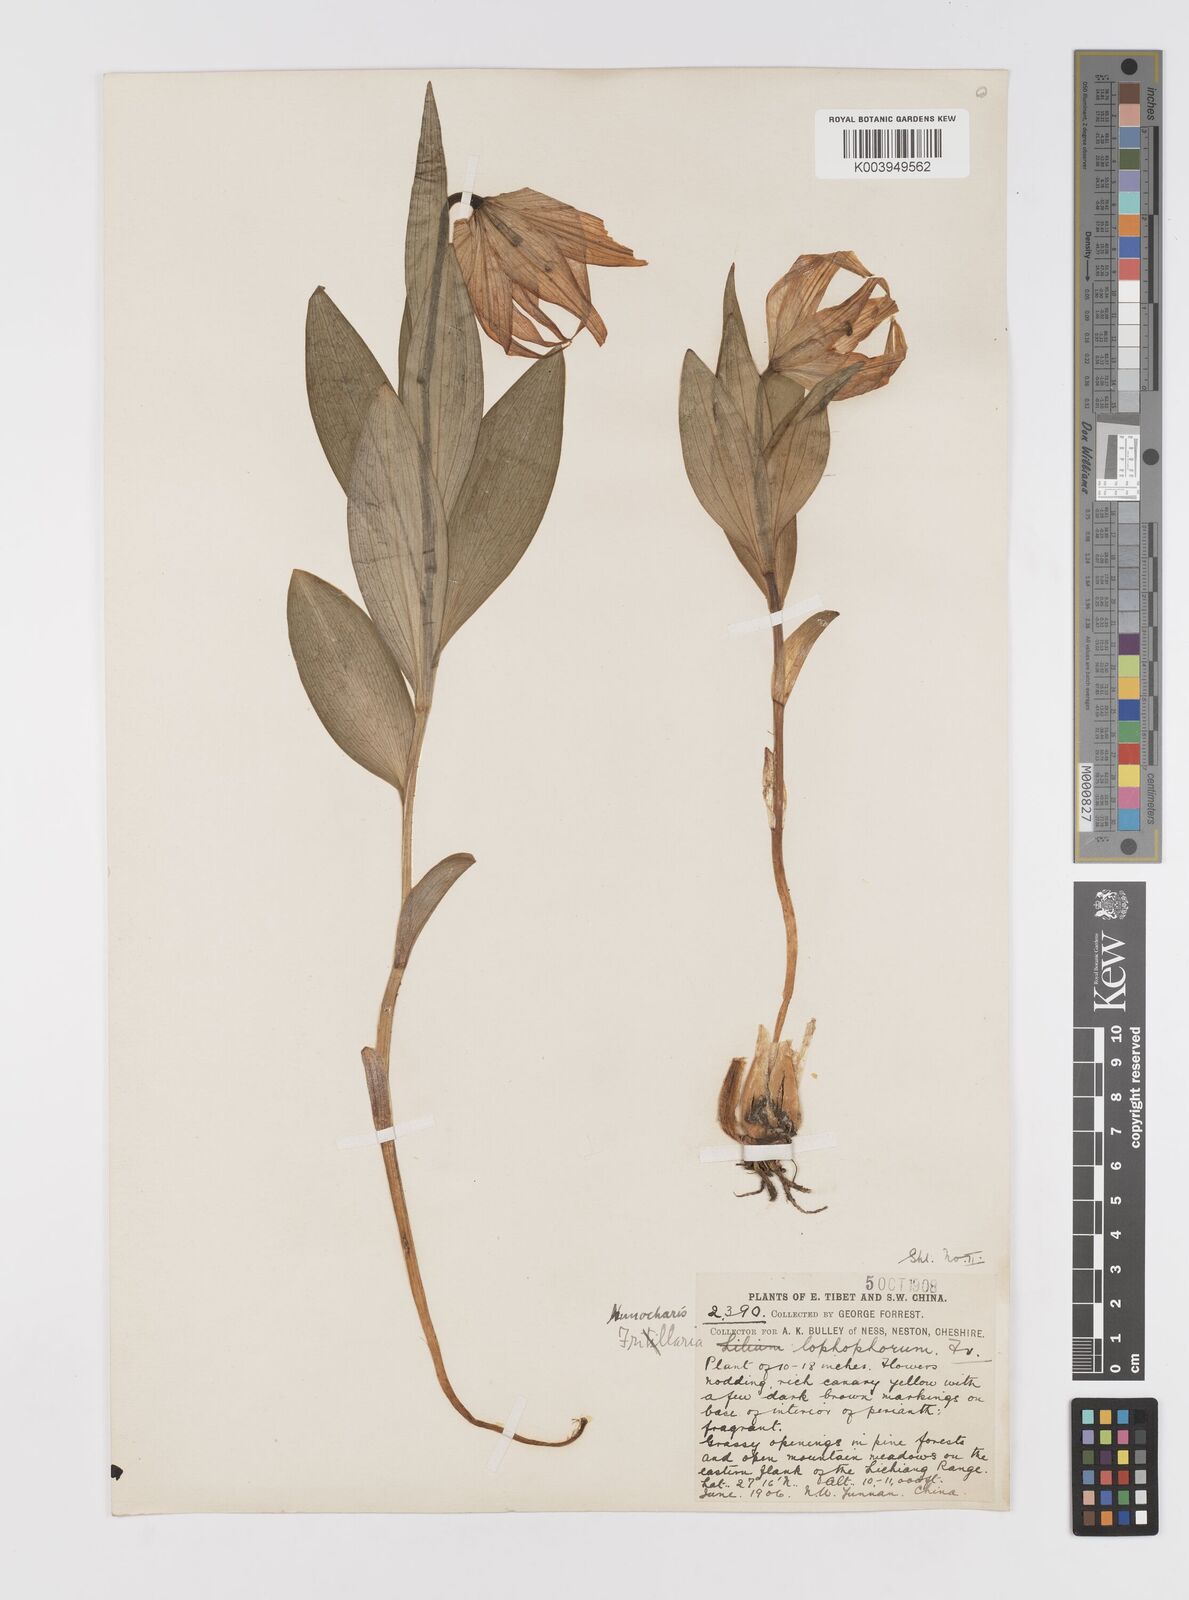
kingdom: Plantae
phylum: Tracheophyta
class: Liliopsida
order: Liliales
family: Liliaceae
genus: Lilium
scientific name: Lilium lophophorum
